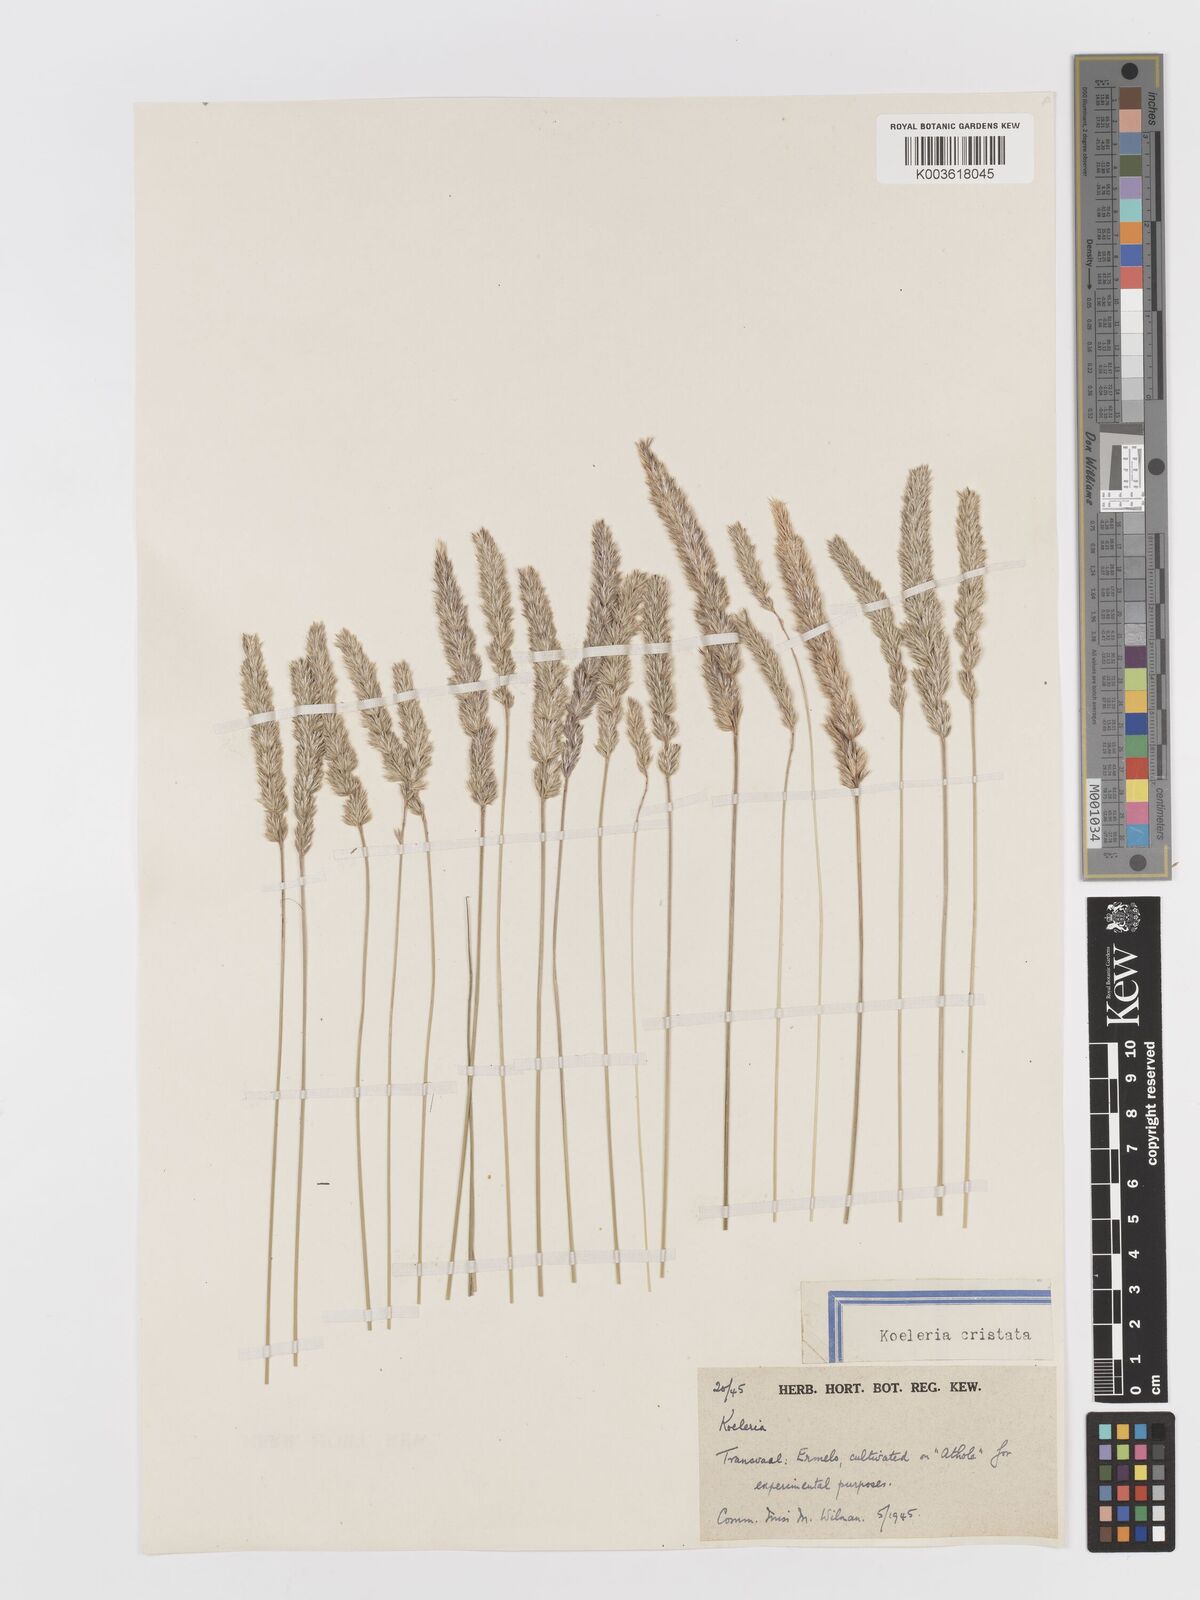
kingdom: Plantae
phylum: Tracheophyta
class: Liliopsida
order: Poales
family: Poaceae
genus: Koeleria
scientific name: Koeleria capensis
